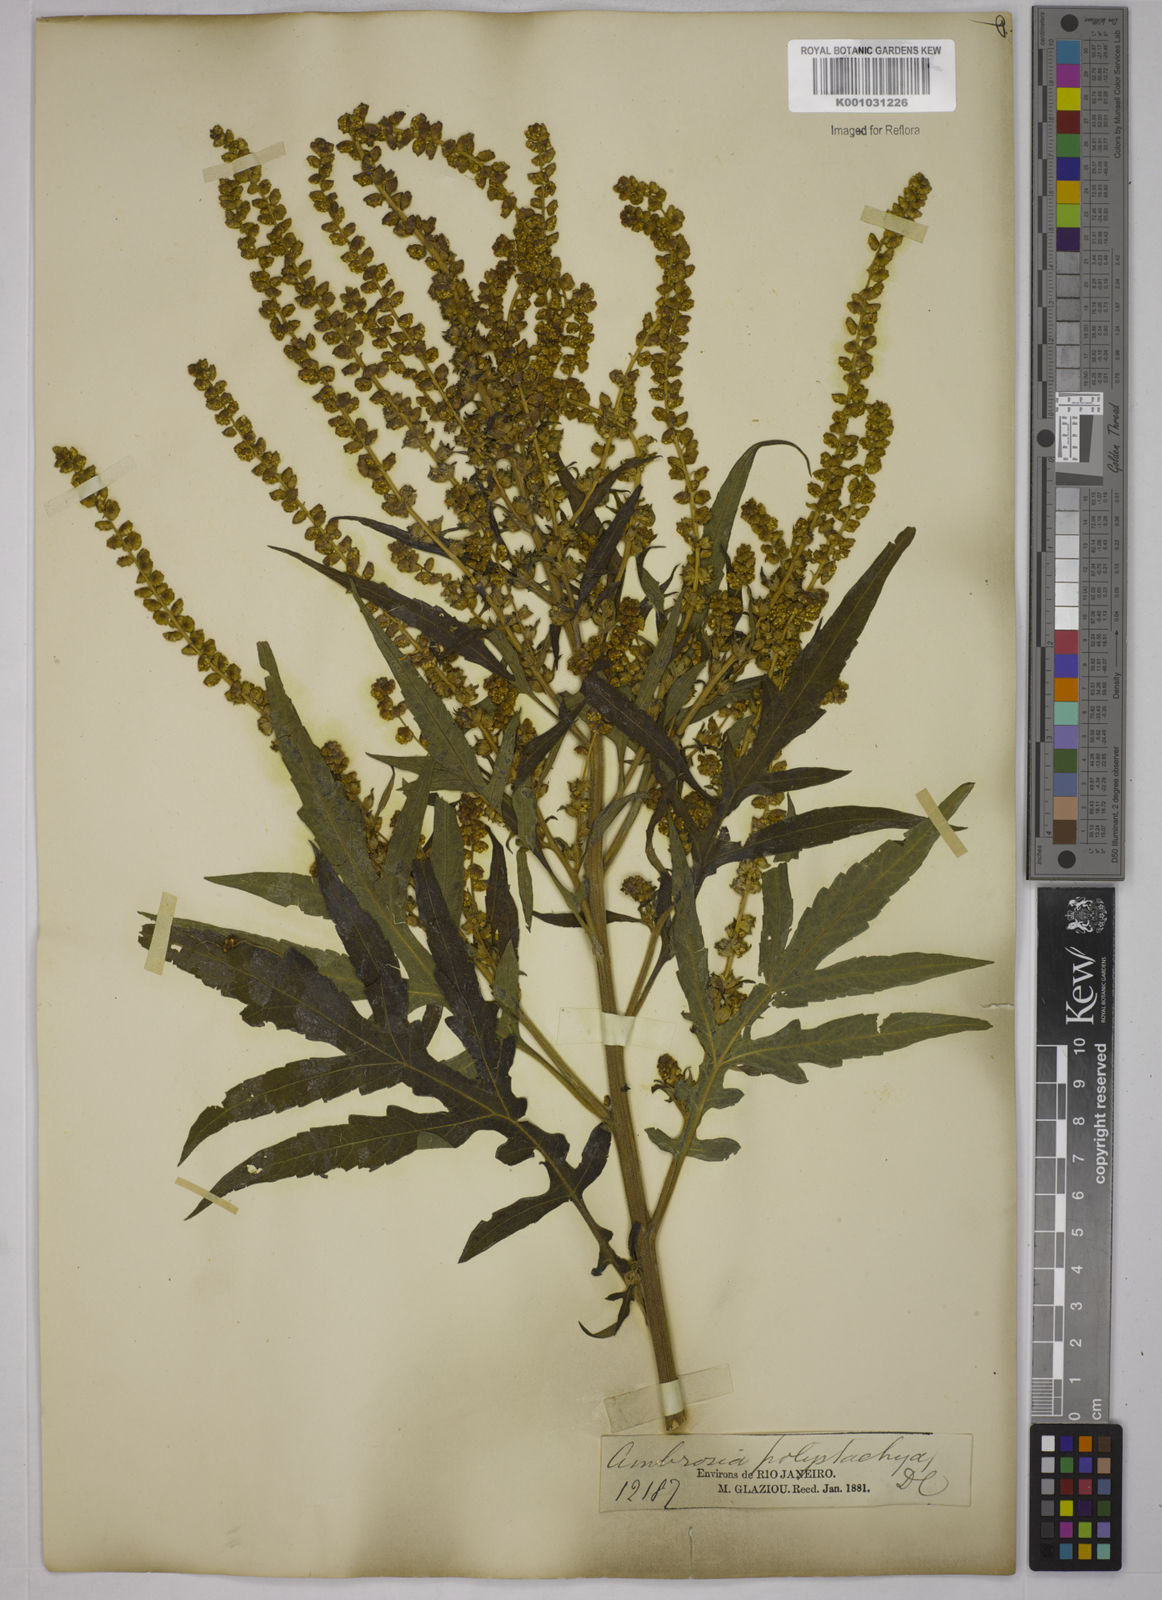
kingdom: Plantae
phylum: Tracheophyta
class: Magnoliopsida
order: Asterales
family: Asteraceae
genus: Ambrosia
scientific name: Ambrosia polystachya
